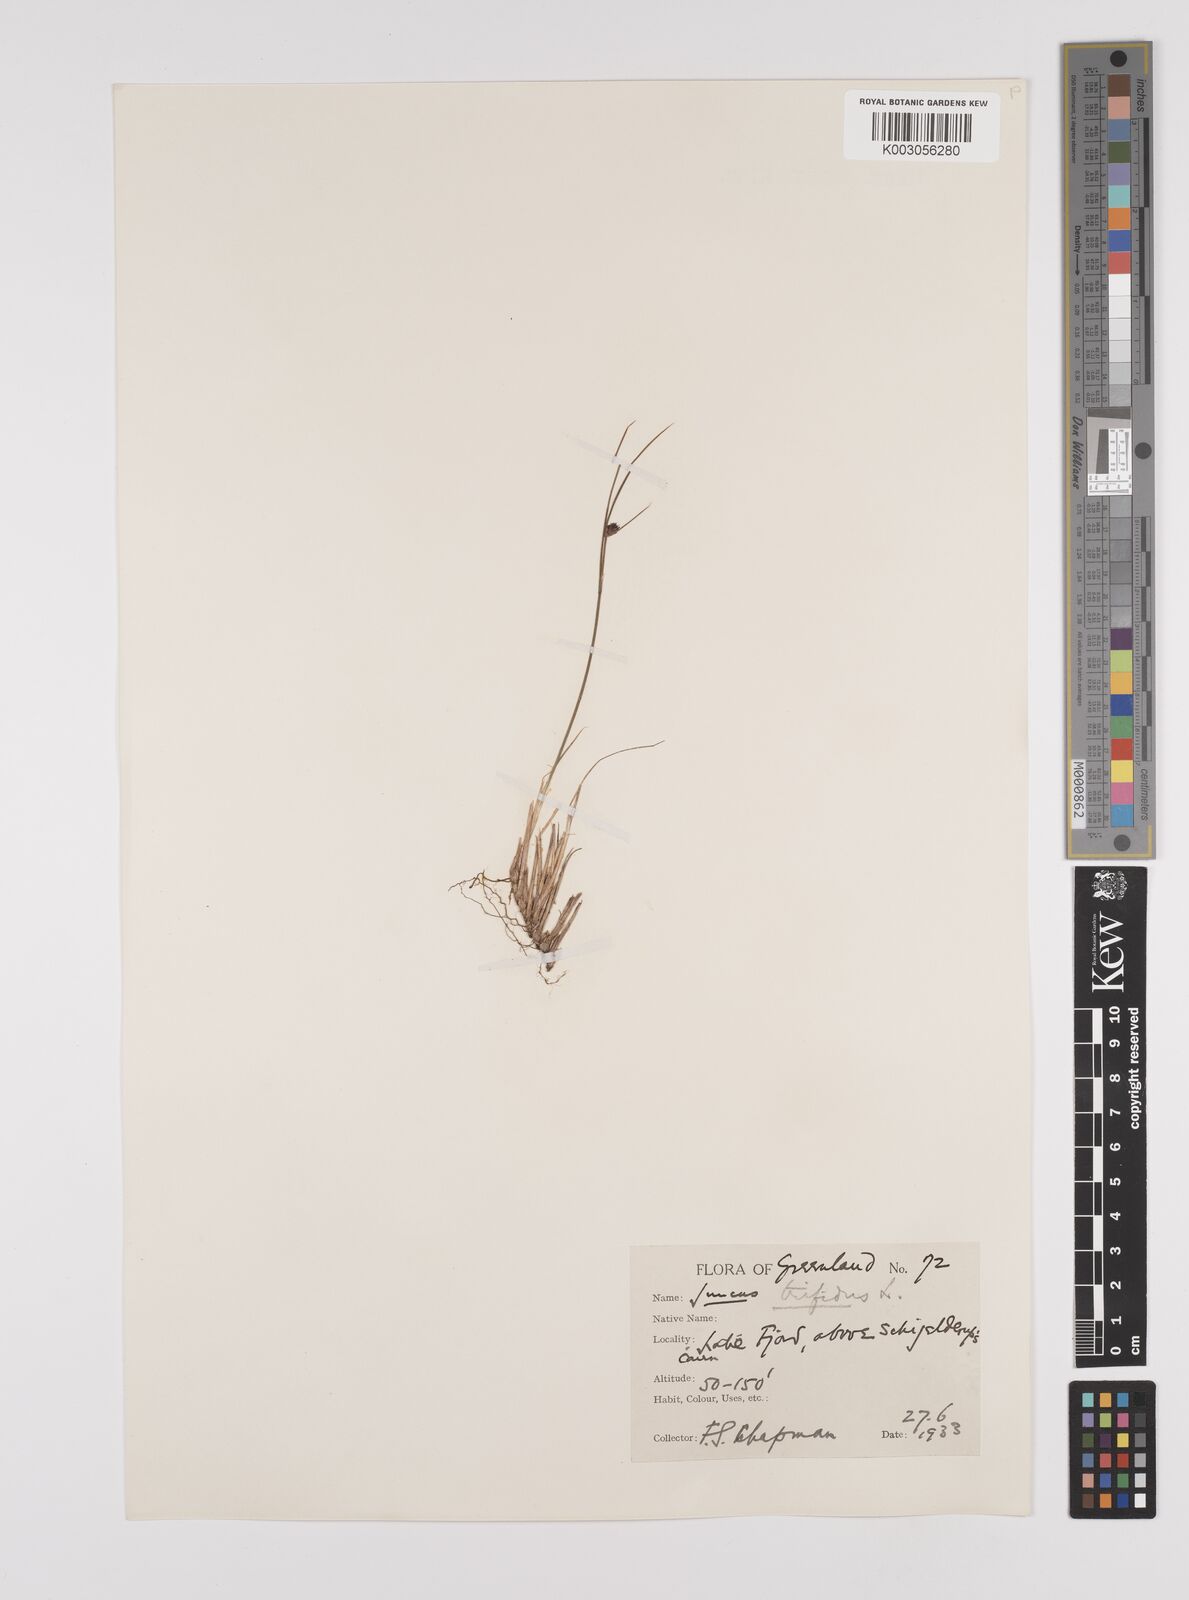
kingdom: Plantae
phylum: Tracheophyta
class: Liliopsida
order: Poales
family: Juncaceae
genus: Oreojuncus
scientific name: Oreojuncus trifidus
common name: Highland rush
